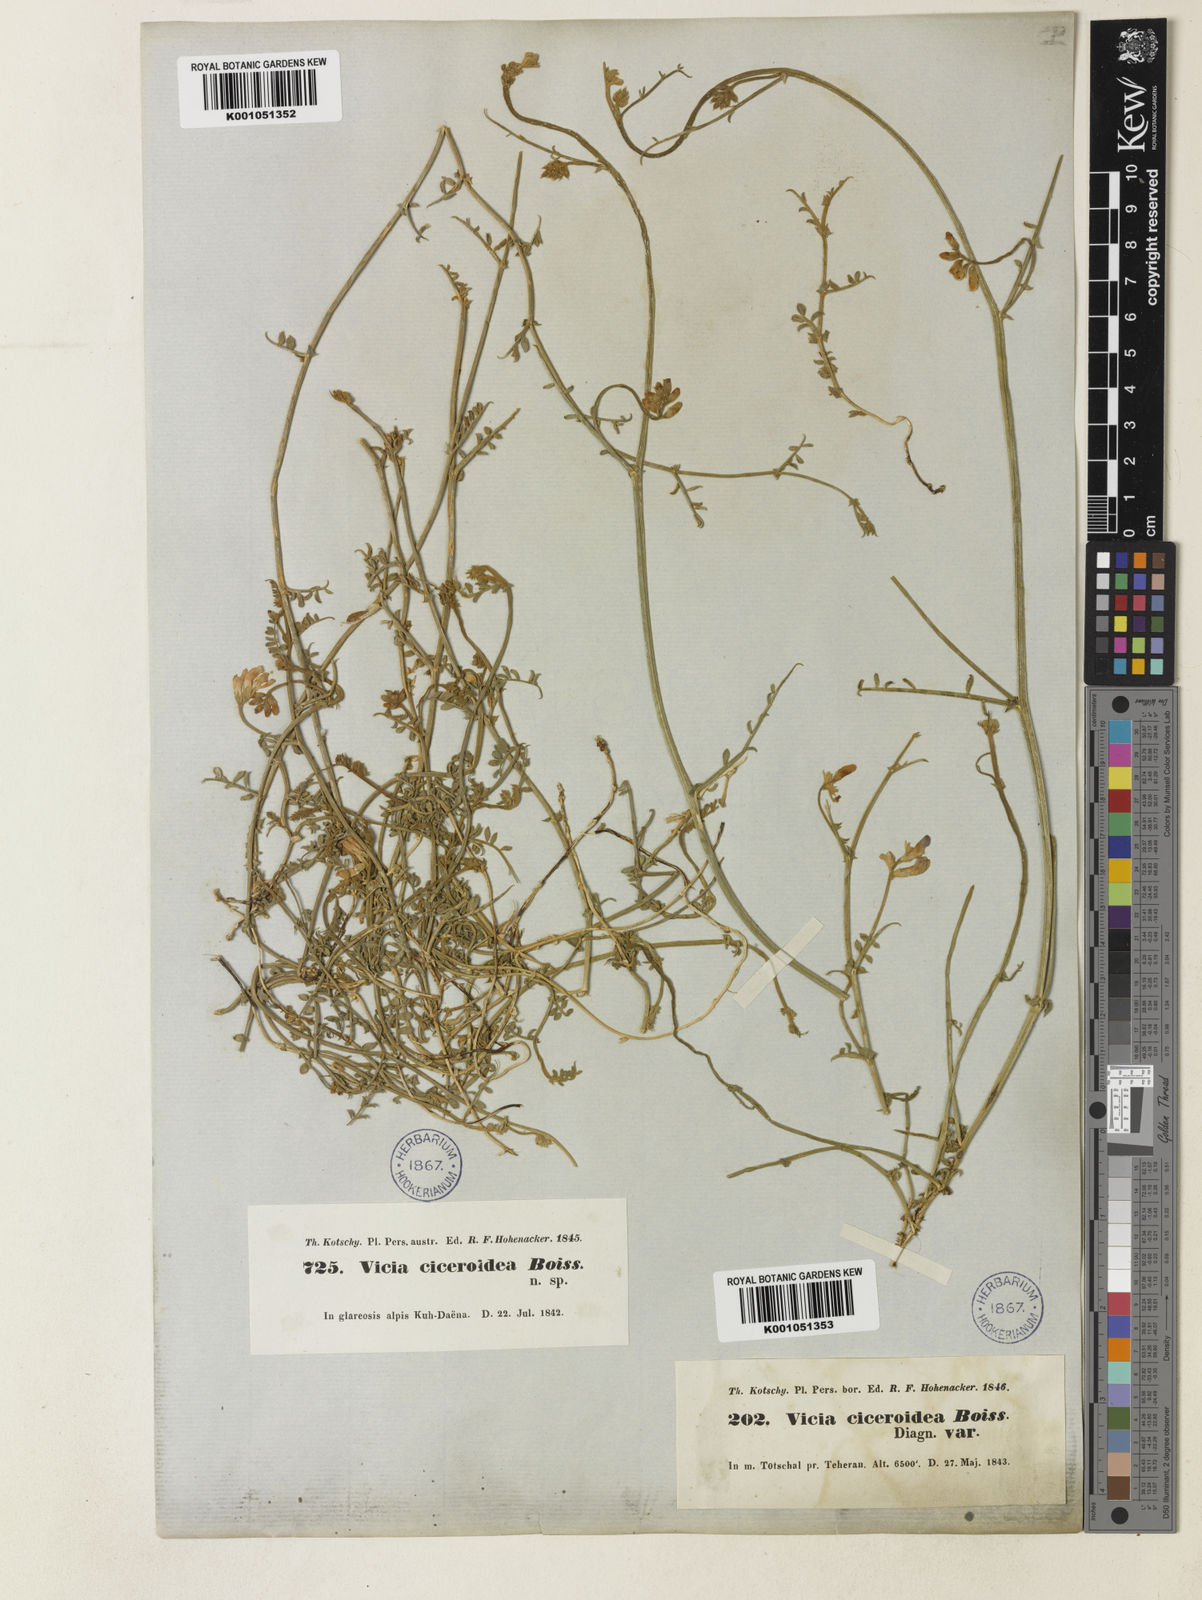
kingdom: Plantae
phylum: Tracheophyta
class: Magnoliopsida
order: Fabales
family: Fabaceae
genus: Vicia
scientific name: Vicia ciceroidea
